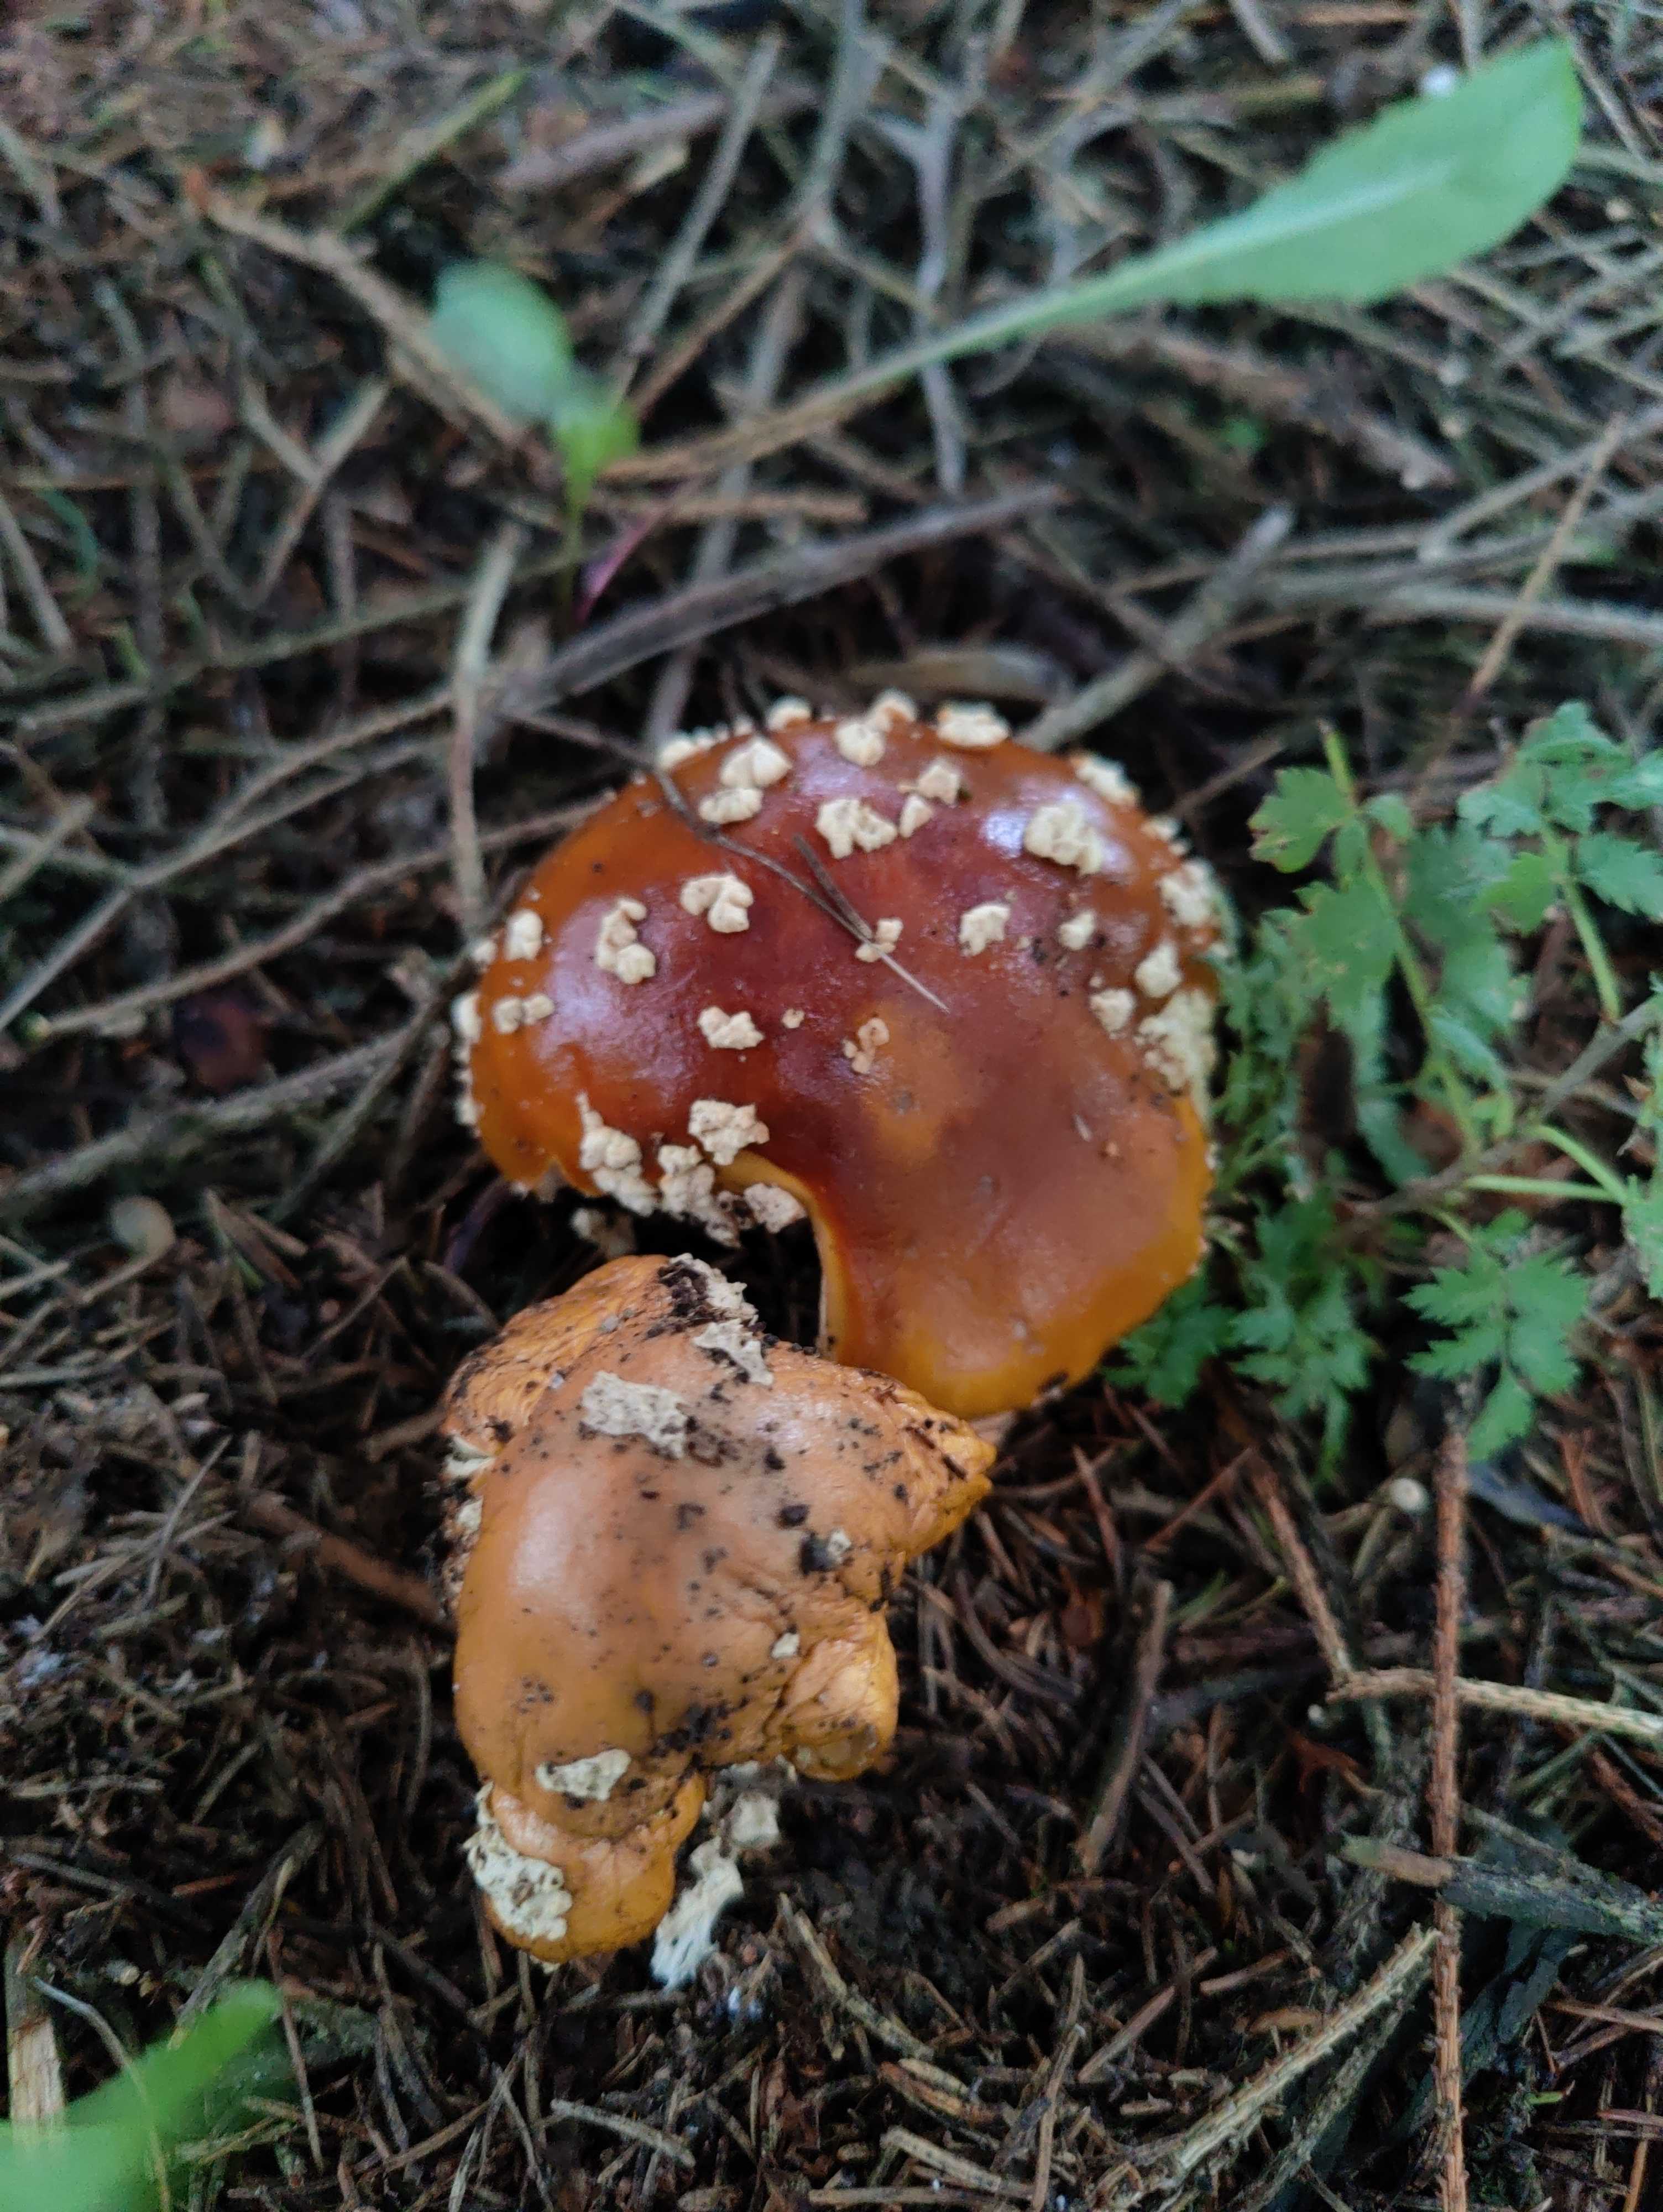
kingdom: Fungi
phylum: Basidiomycota
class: Agaricomycetes
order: Agaricales
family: Amanitaceae
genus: Amanita
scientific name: Amanita regalis
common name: brun fluesvamp
